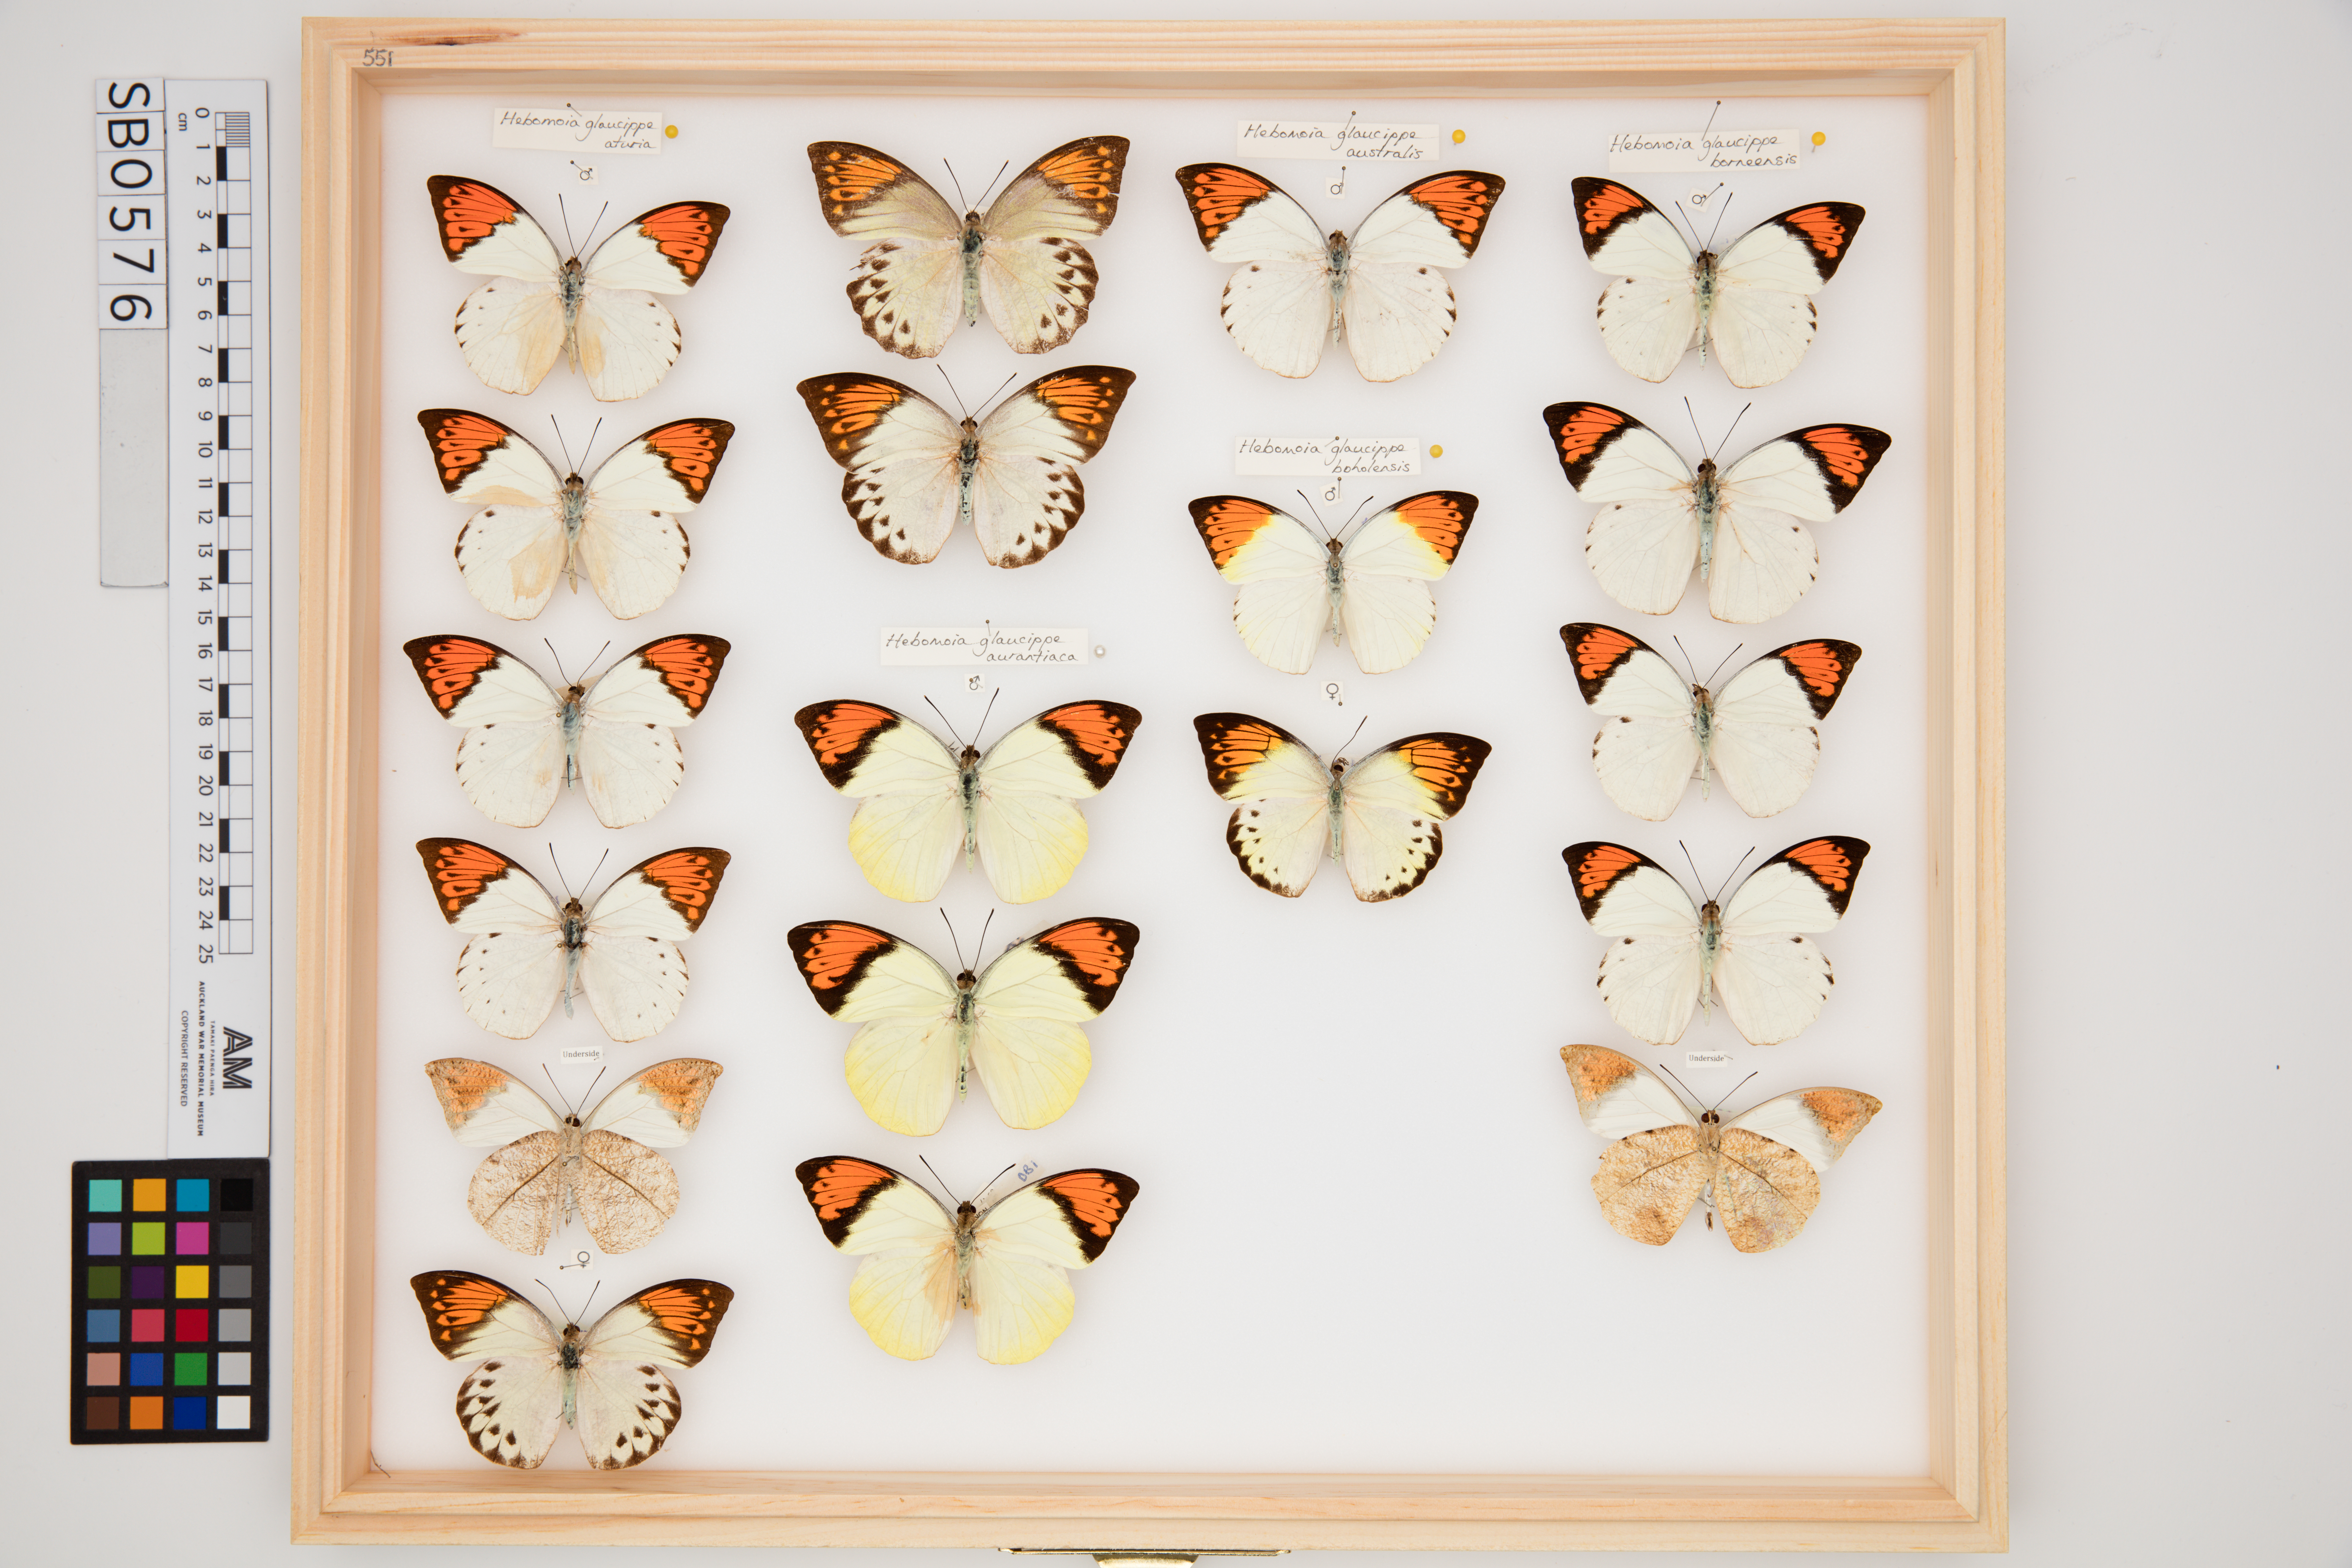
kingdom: Animalia
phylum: Arthropoda
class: Insecta
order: Lepidoptera
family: Pieridae
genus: Hebomoia
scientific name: Hebomoia glaucippe
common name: Great orange tip
